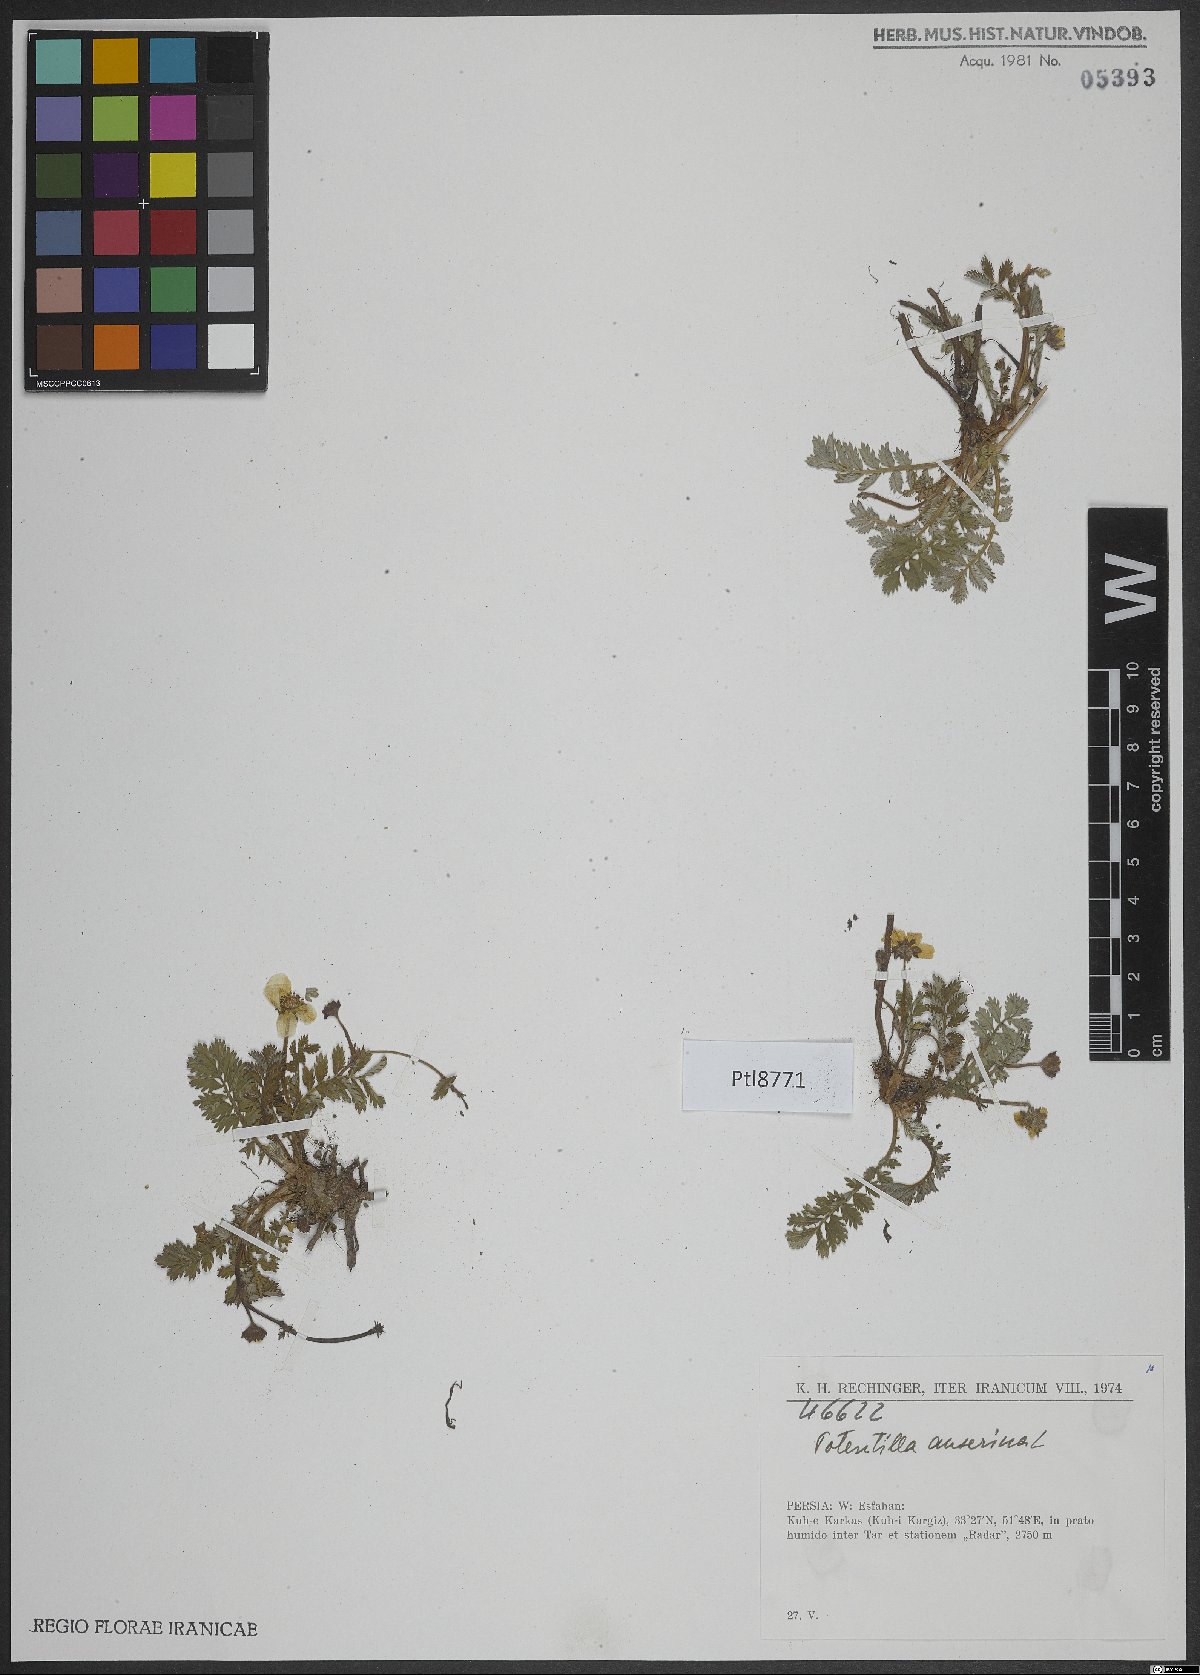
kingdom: Plantae
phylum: Tracheophyta
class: Magnoliopsida
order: Rosales
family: Rosaceae
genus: Argentina
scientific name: Argentina anserina
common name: Common silverweed
